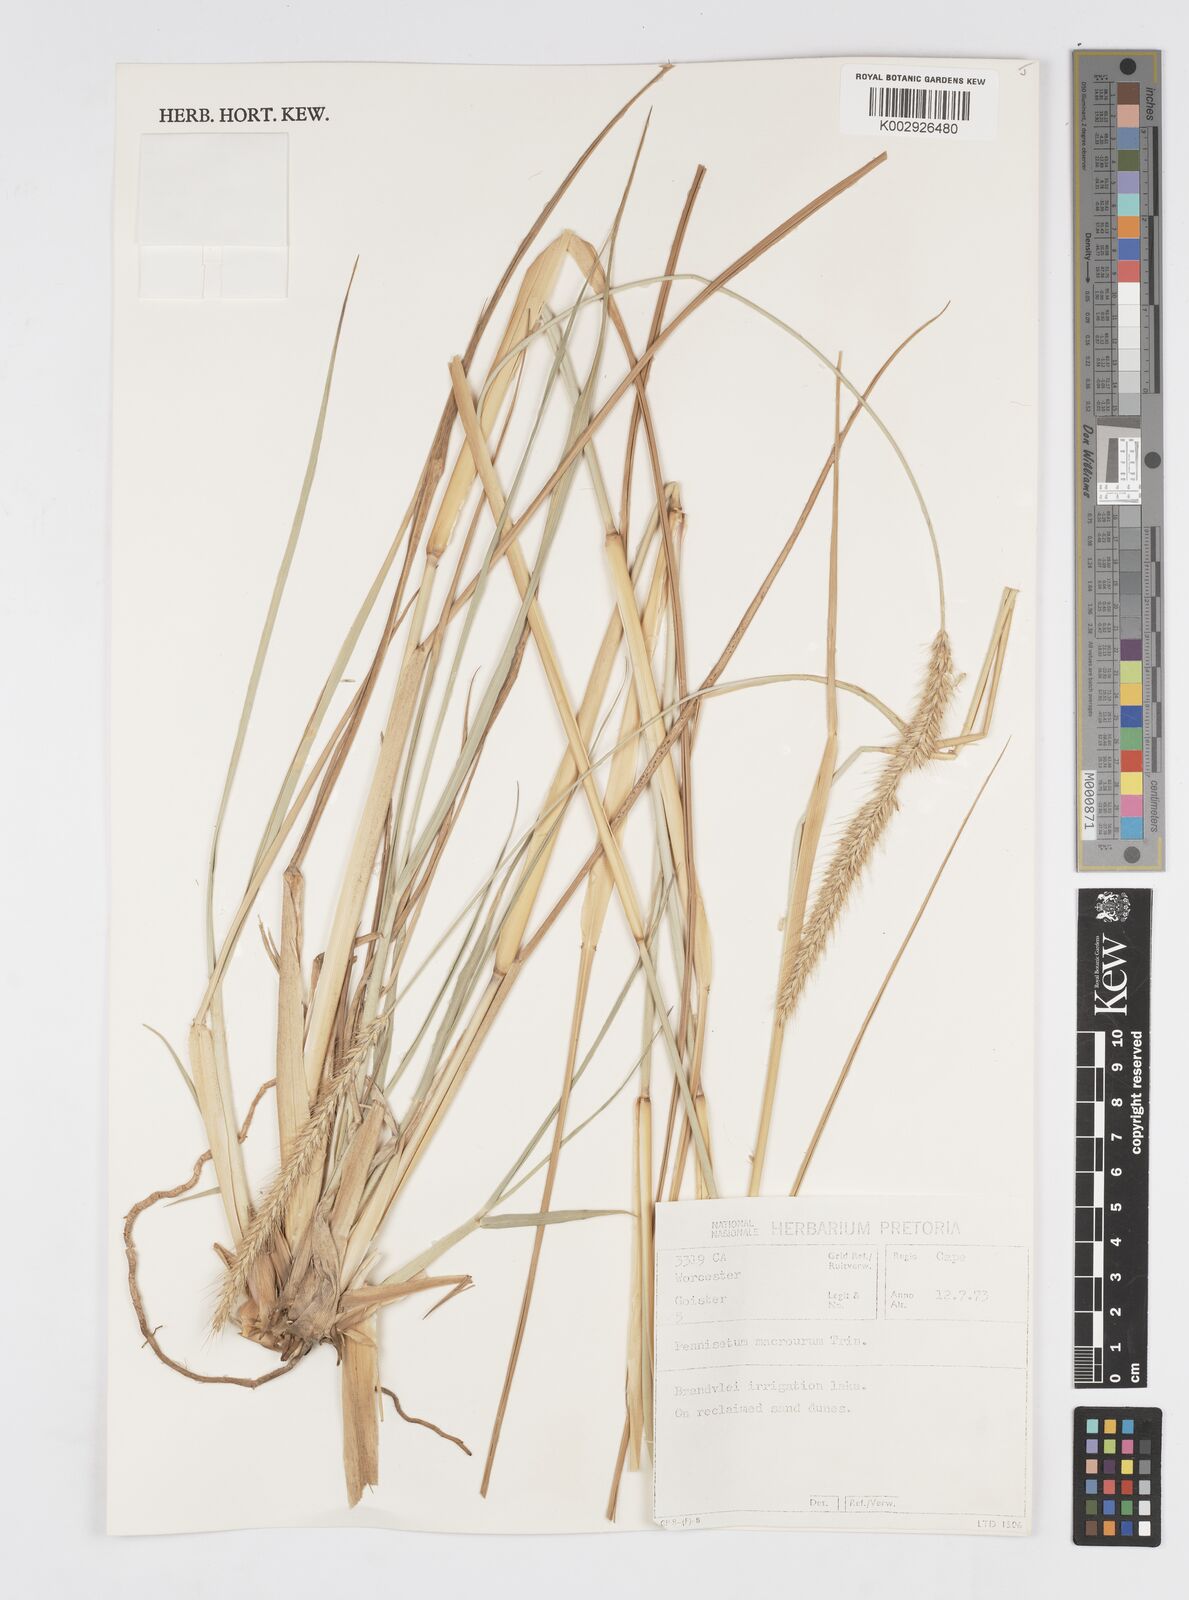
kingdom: Plantae
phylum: Tracheophyta
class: Liliopsida
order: Poales
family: Poaceae
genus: Cenchrus
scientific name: Cenchrus caudatus
